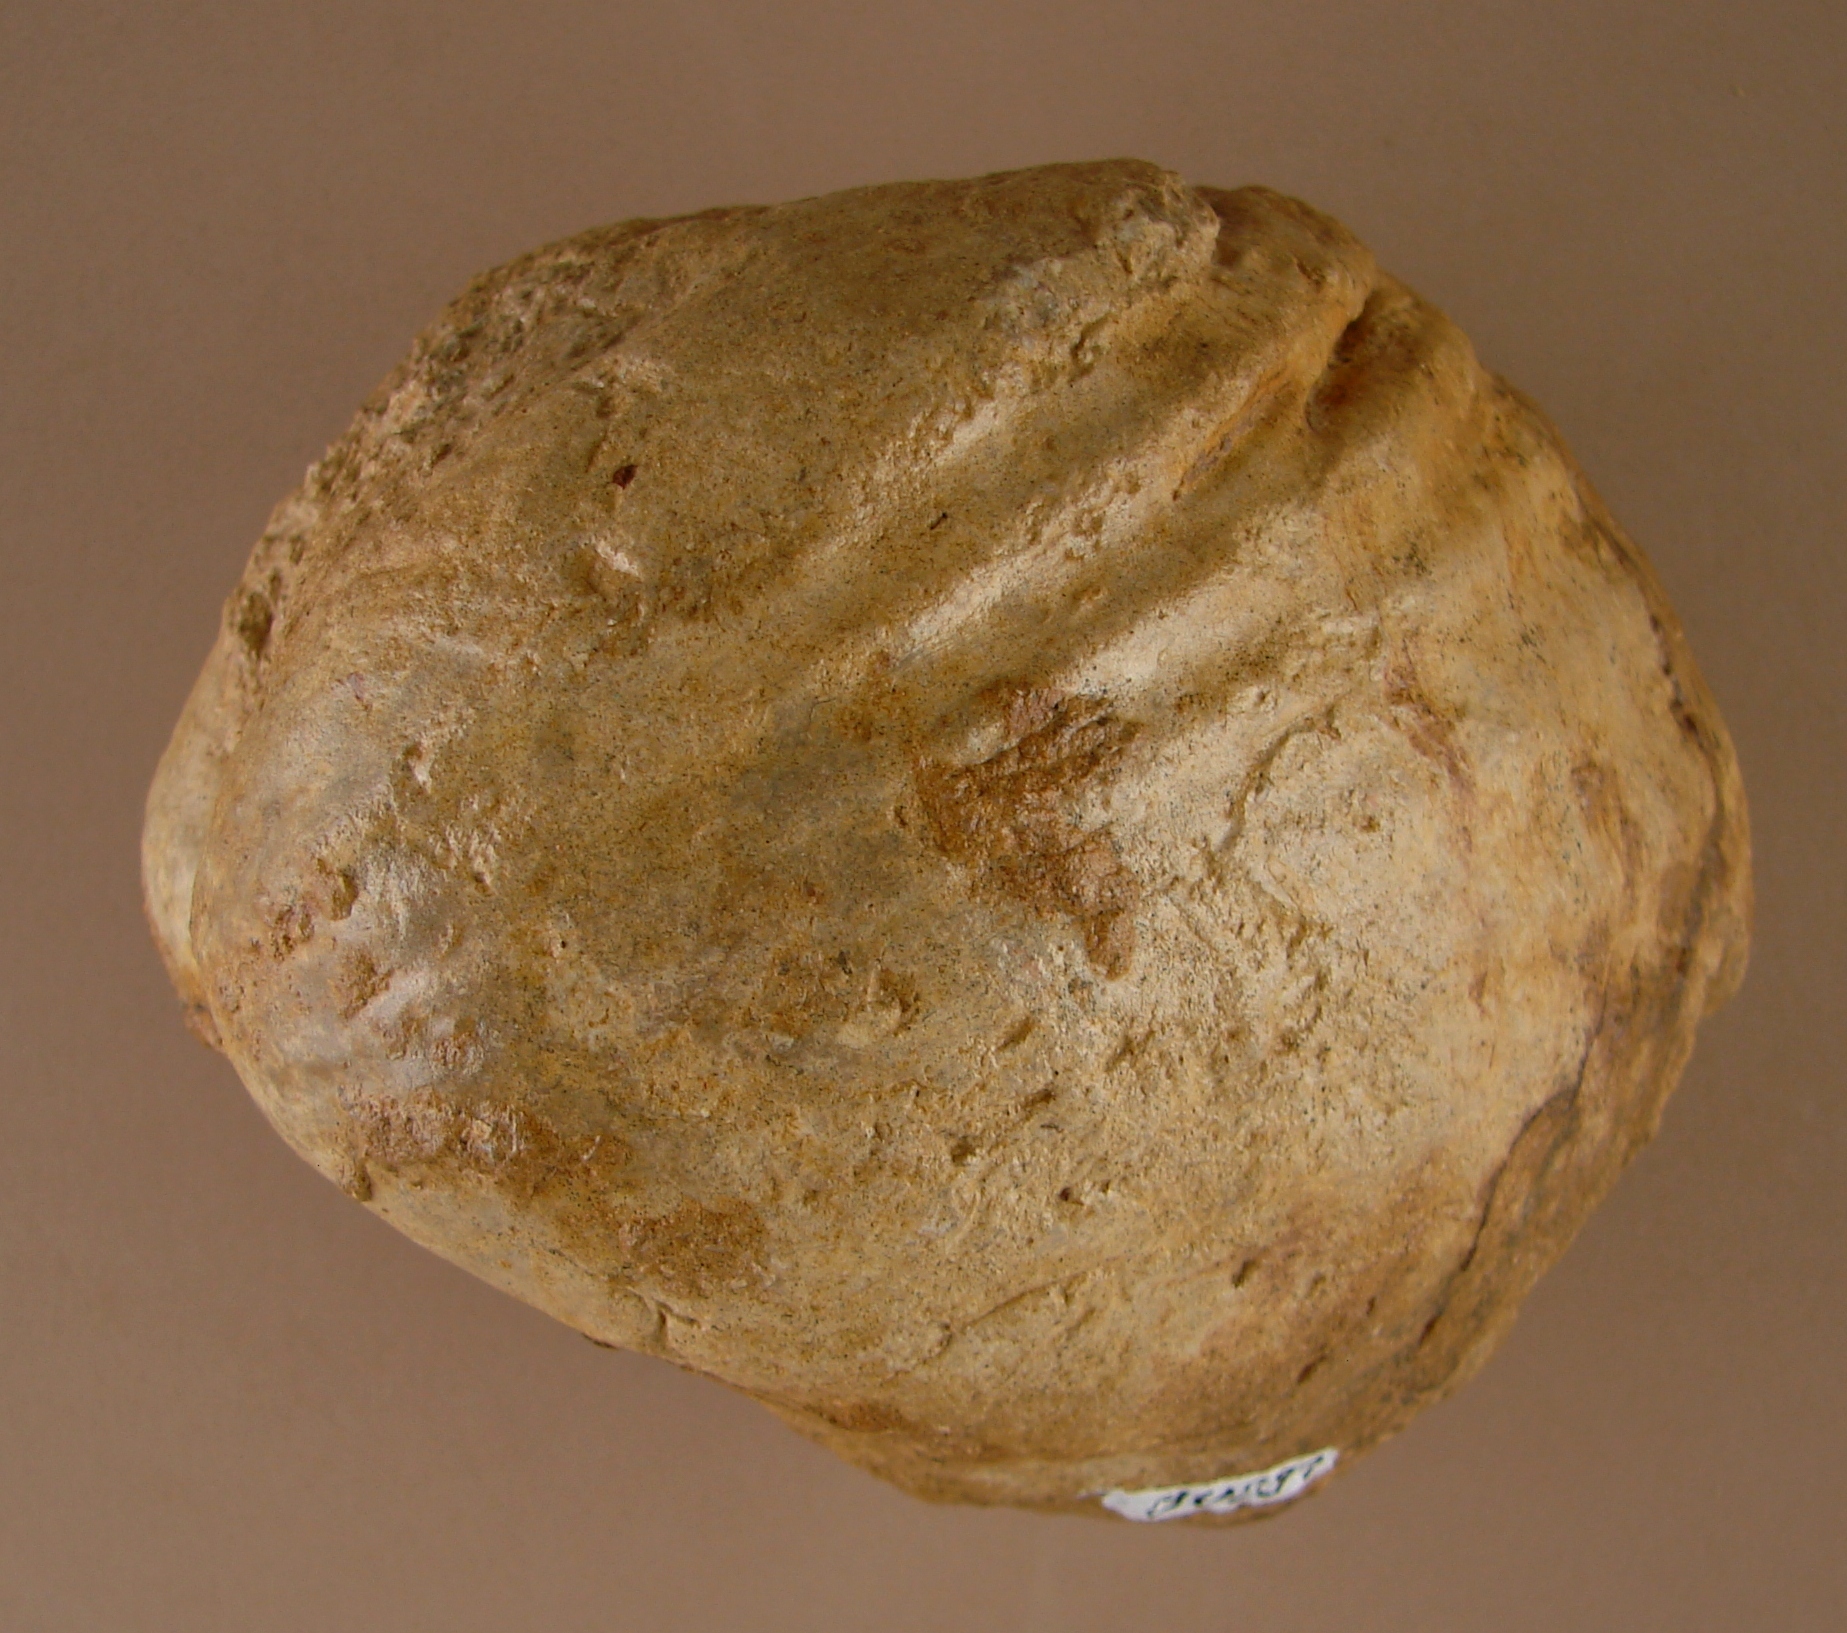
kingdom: Animalia
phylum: Mollusca
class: Bivalvia
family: Pholadomyidae
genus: Pholadomya
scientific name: Pholadomya
